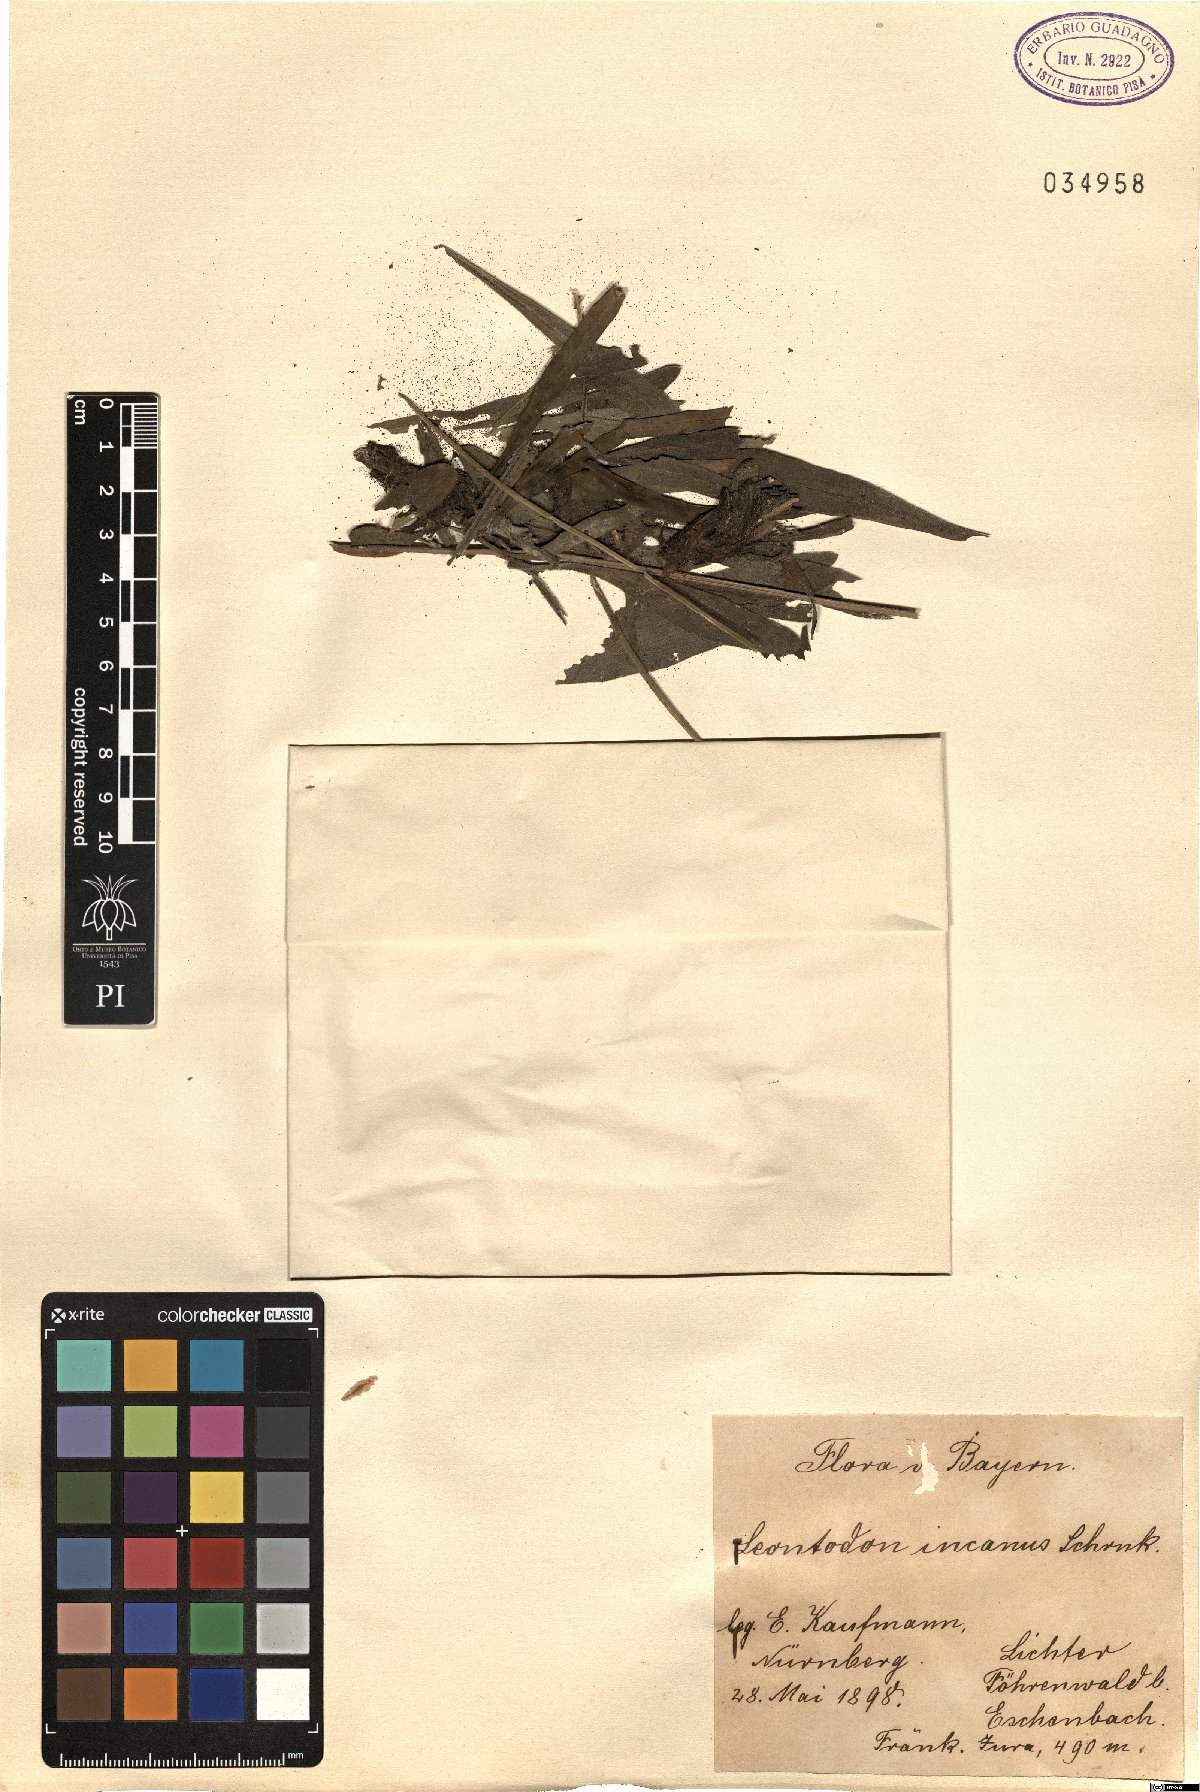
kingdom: Plantae
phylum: Tracheophyta
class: Magnoliopsida
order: Asterales
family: Asteraceae
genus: Leontodon
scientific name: Leontodon incanus
